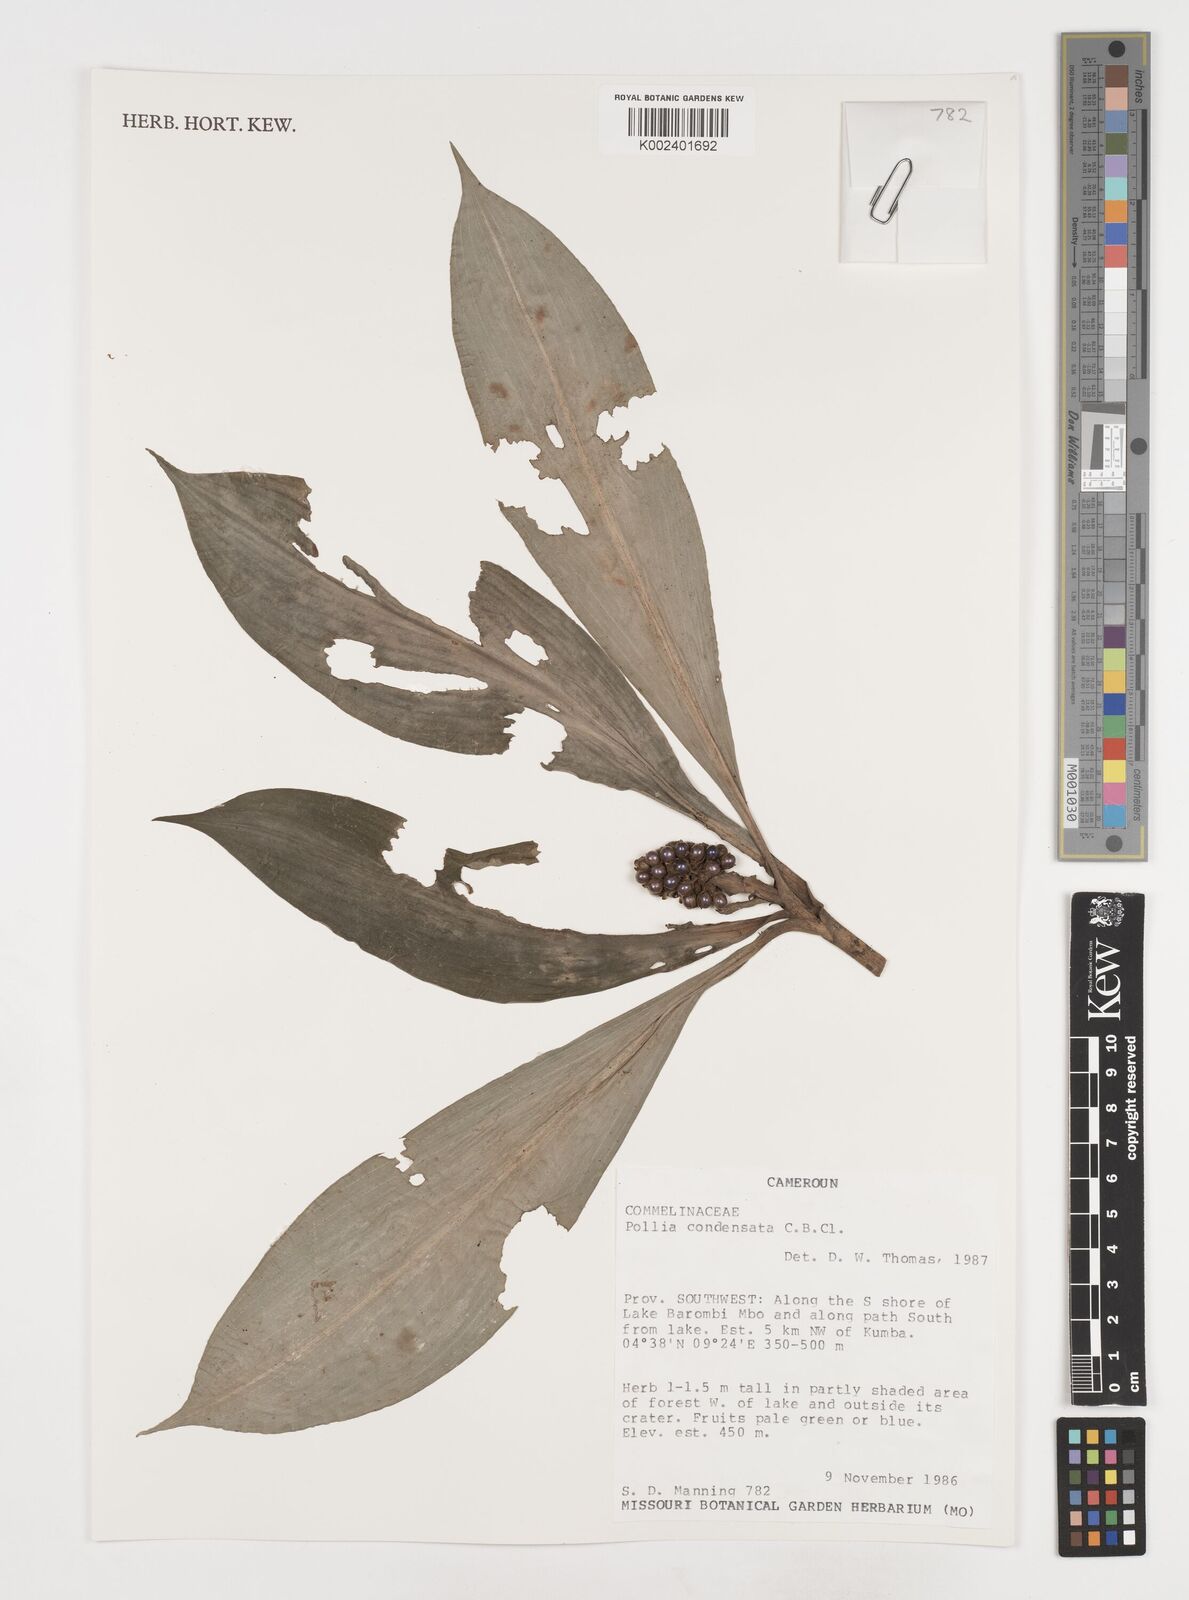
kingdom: Plantae
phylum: Tracheophyta
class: Liliopsida
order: Commelinales
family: Commelinaceae
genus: Pollia
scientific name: Pollia condensata
